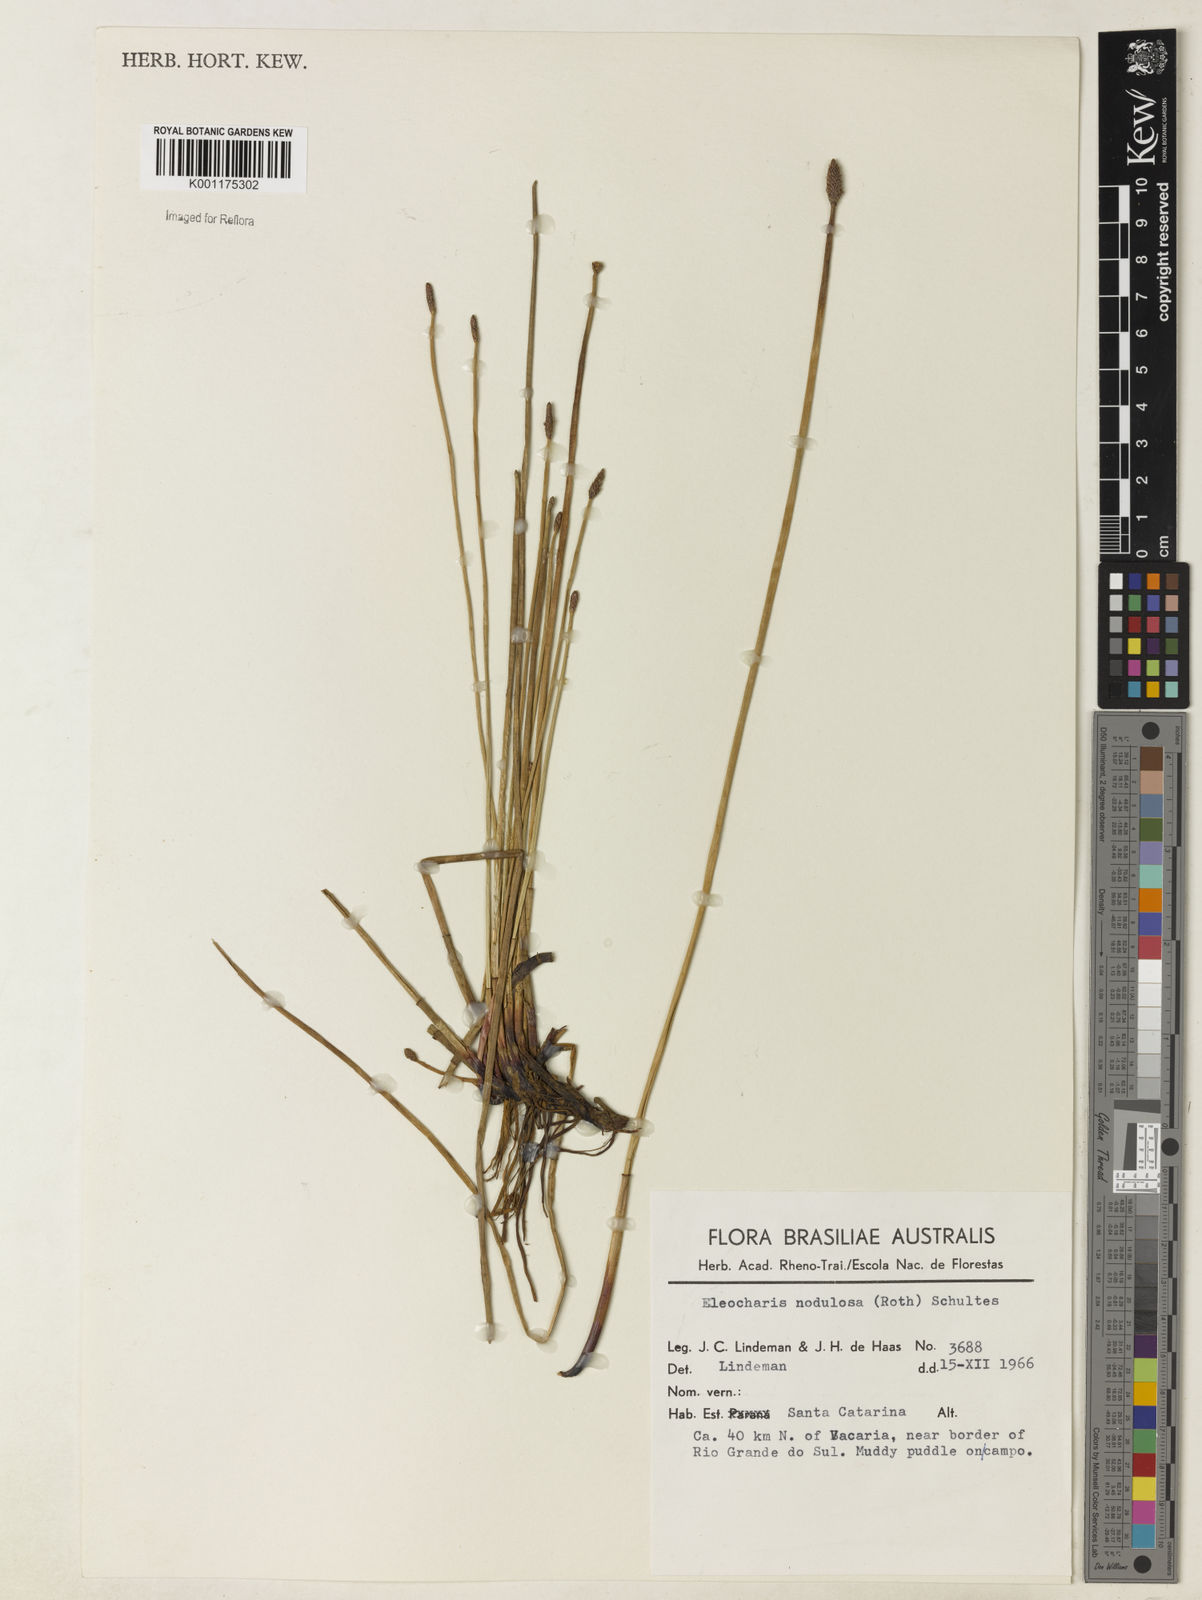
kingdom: Plantae
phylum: Tracheophyta
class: Liliopsida
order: Poales
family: Cyperaceae
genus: Eleocharis
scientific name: Eleocharis montana
